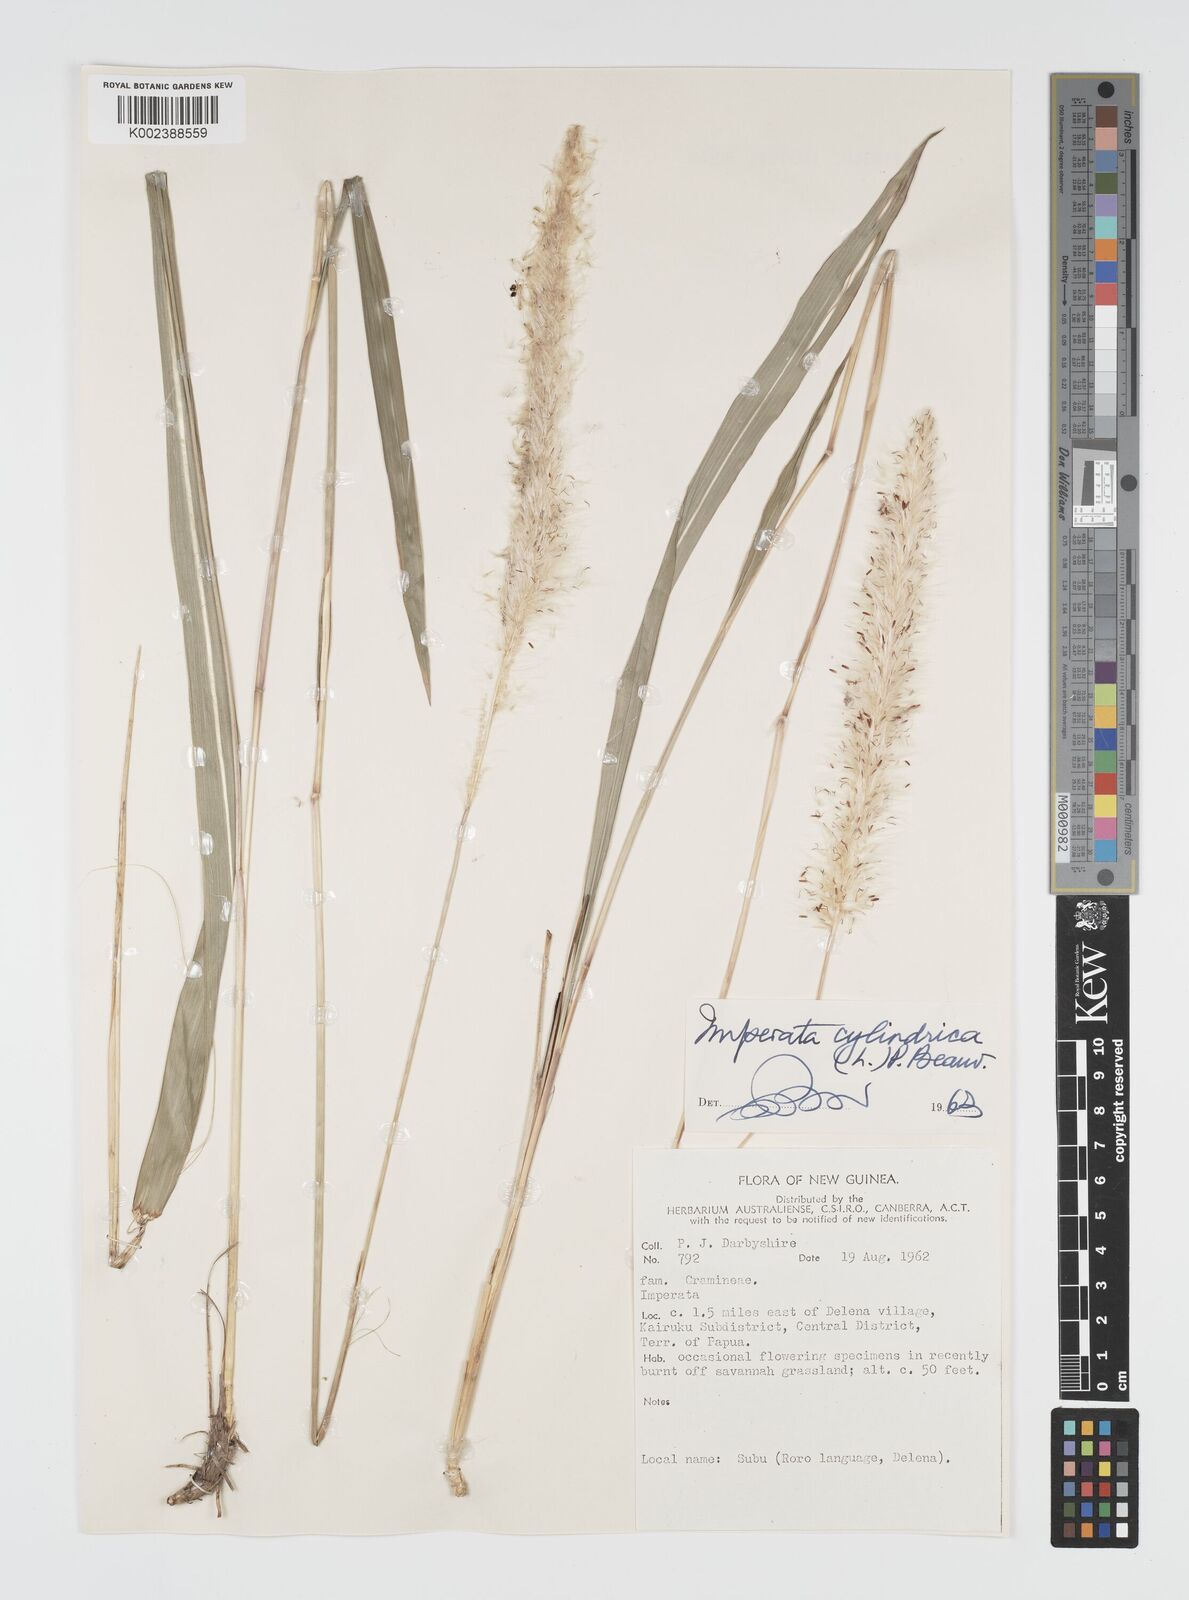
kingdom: Plantae
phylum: Tracheophyta
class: Liliopsida
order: Poales
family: Poaceae
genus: Imperata
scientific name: Imperata cylindrica
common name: Cogongrass
